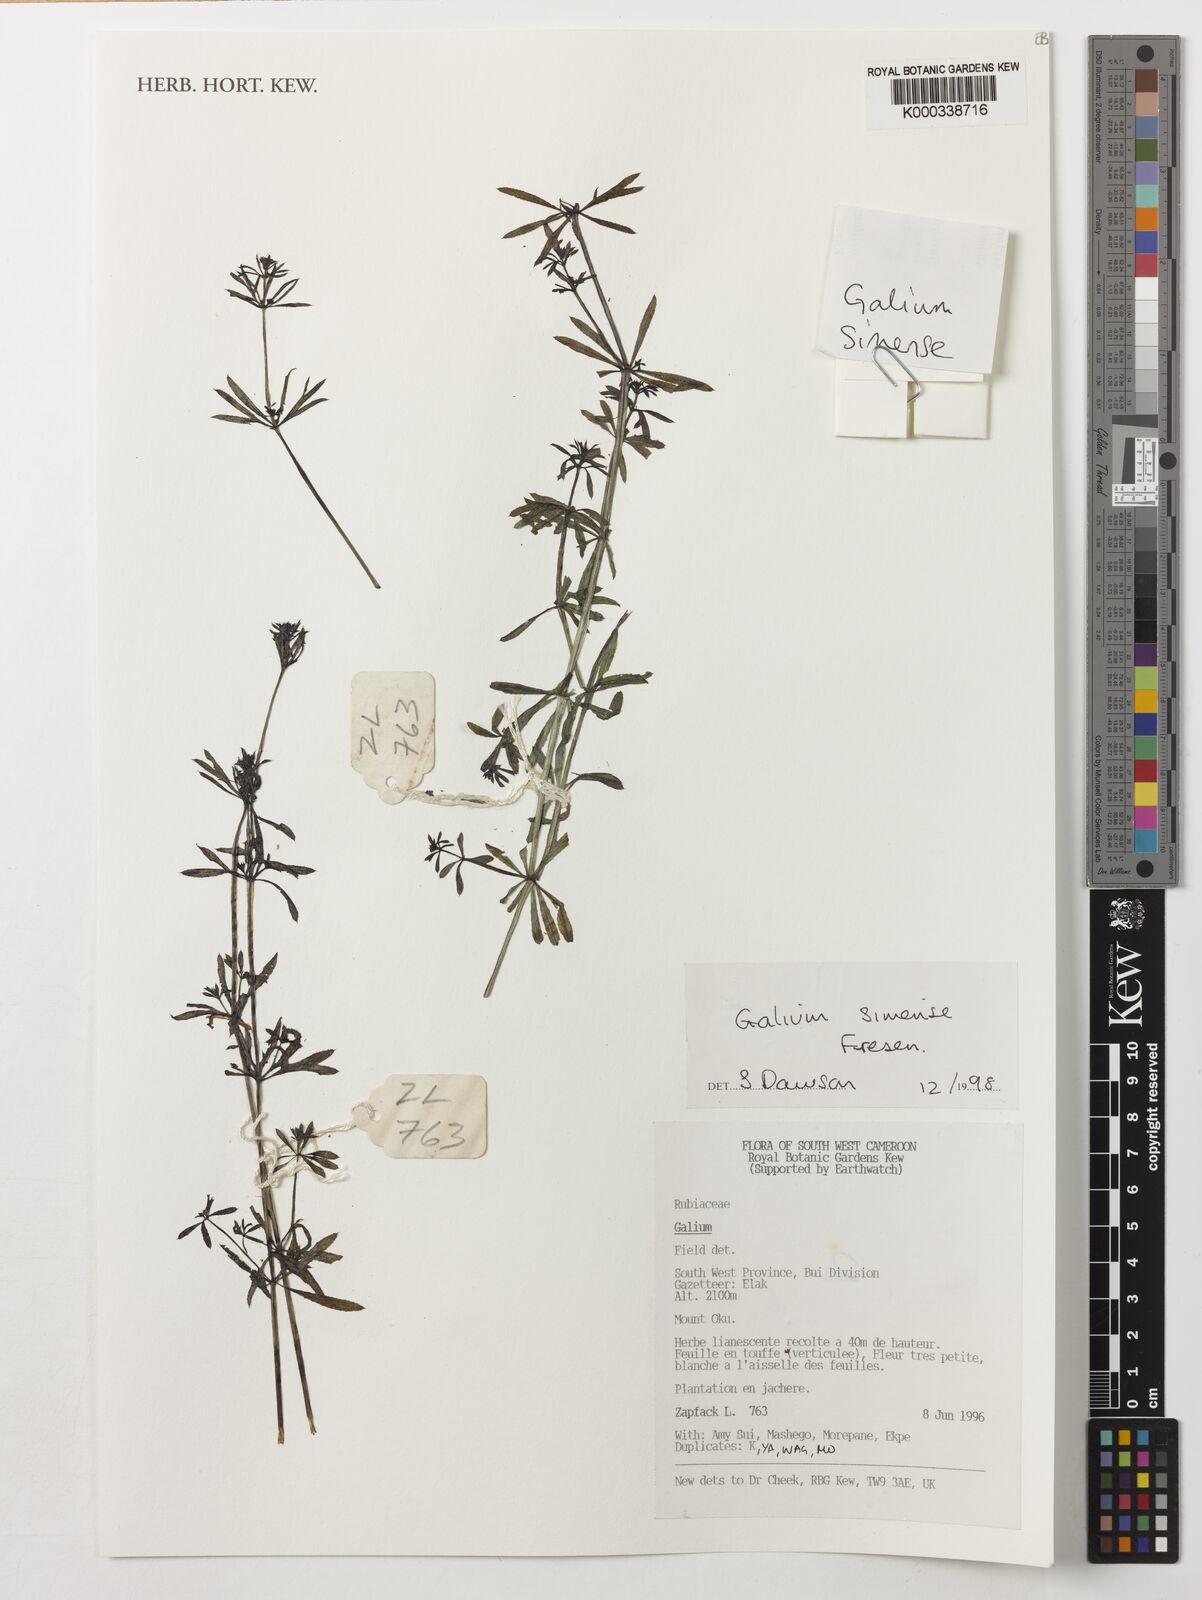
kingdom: Plantae
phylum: Tracheophyta
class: Magnoliopsida
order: Gentianales
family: Rubiaceae
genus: Galium
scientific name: Galium simense
